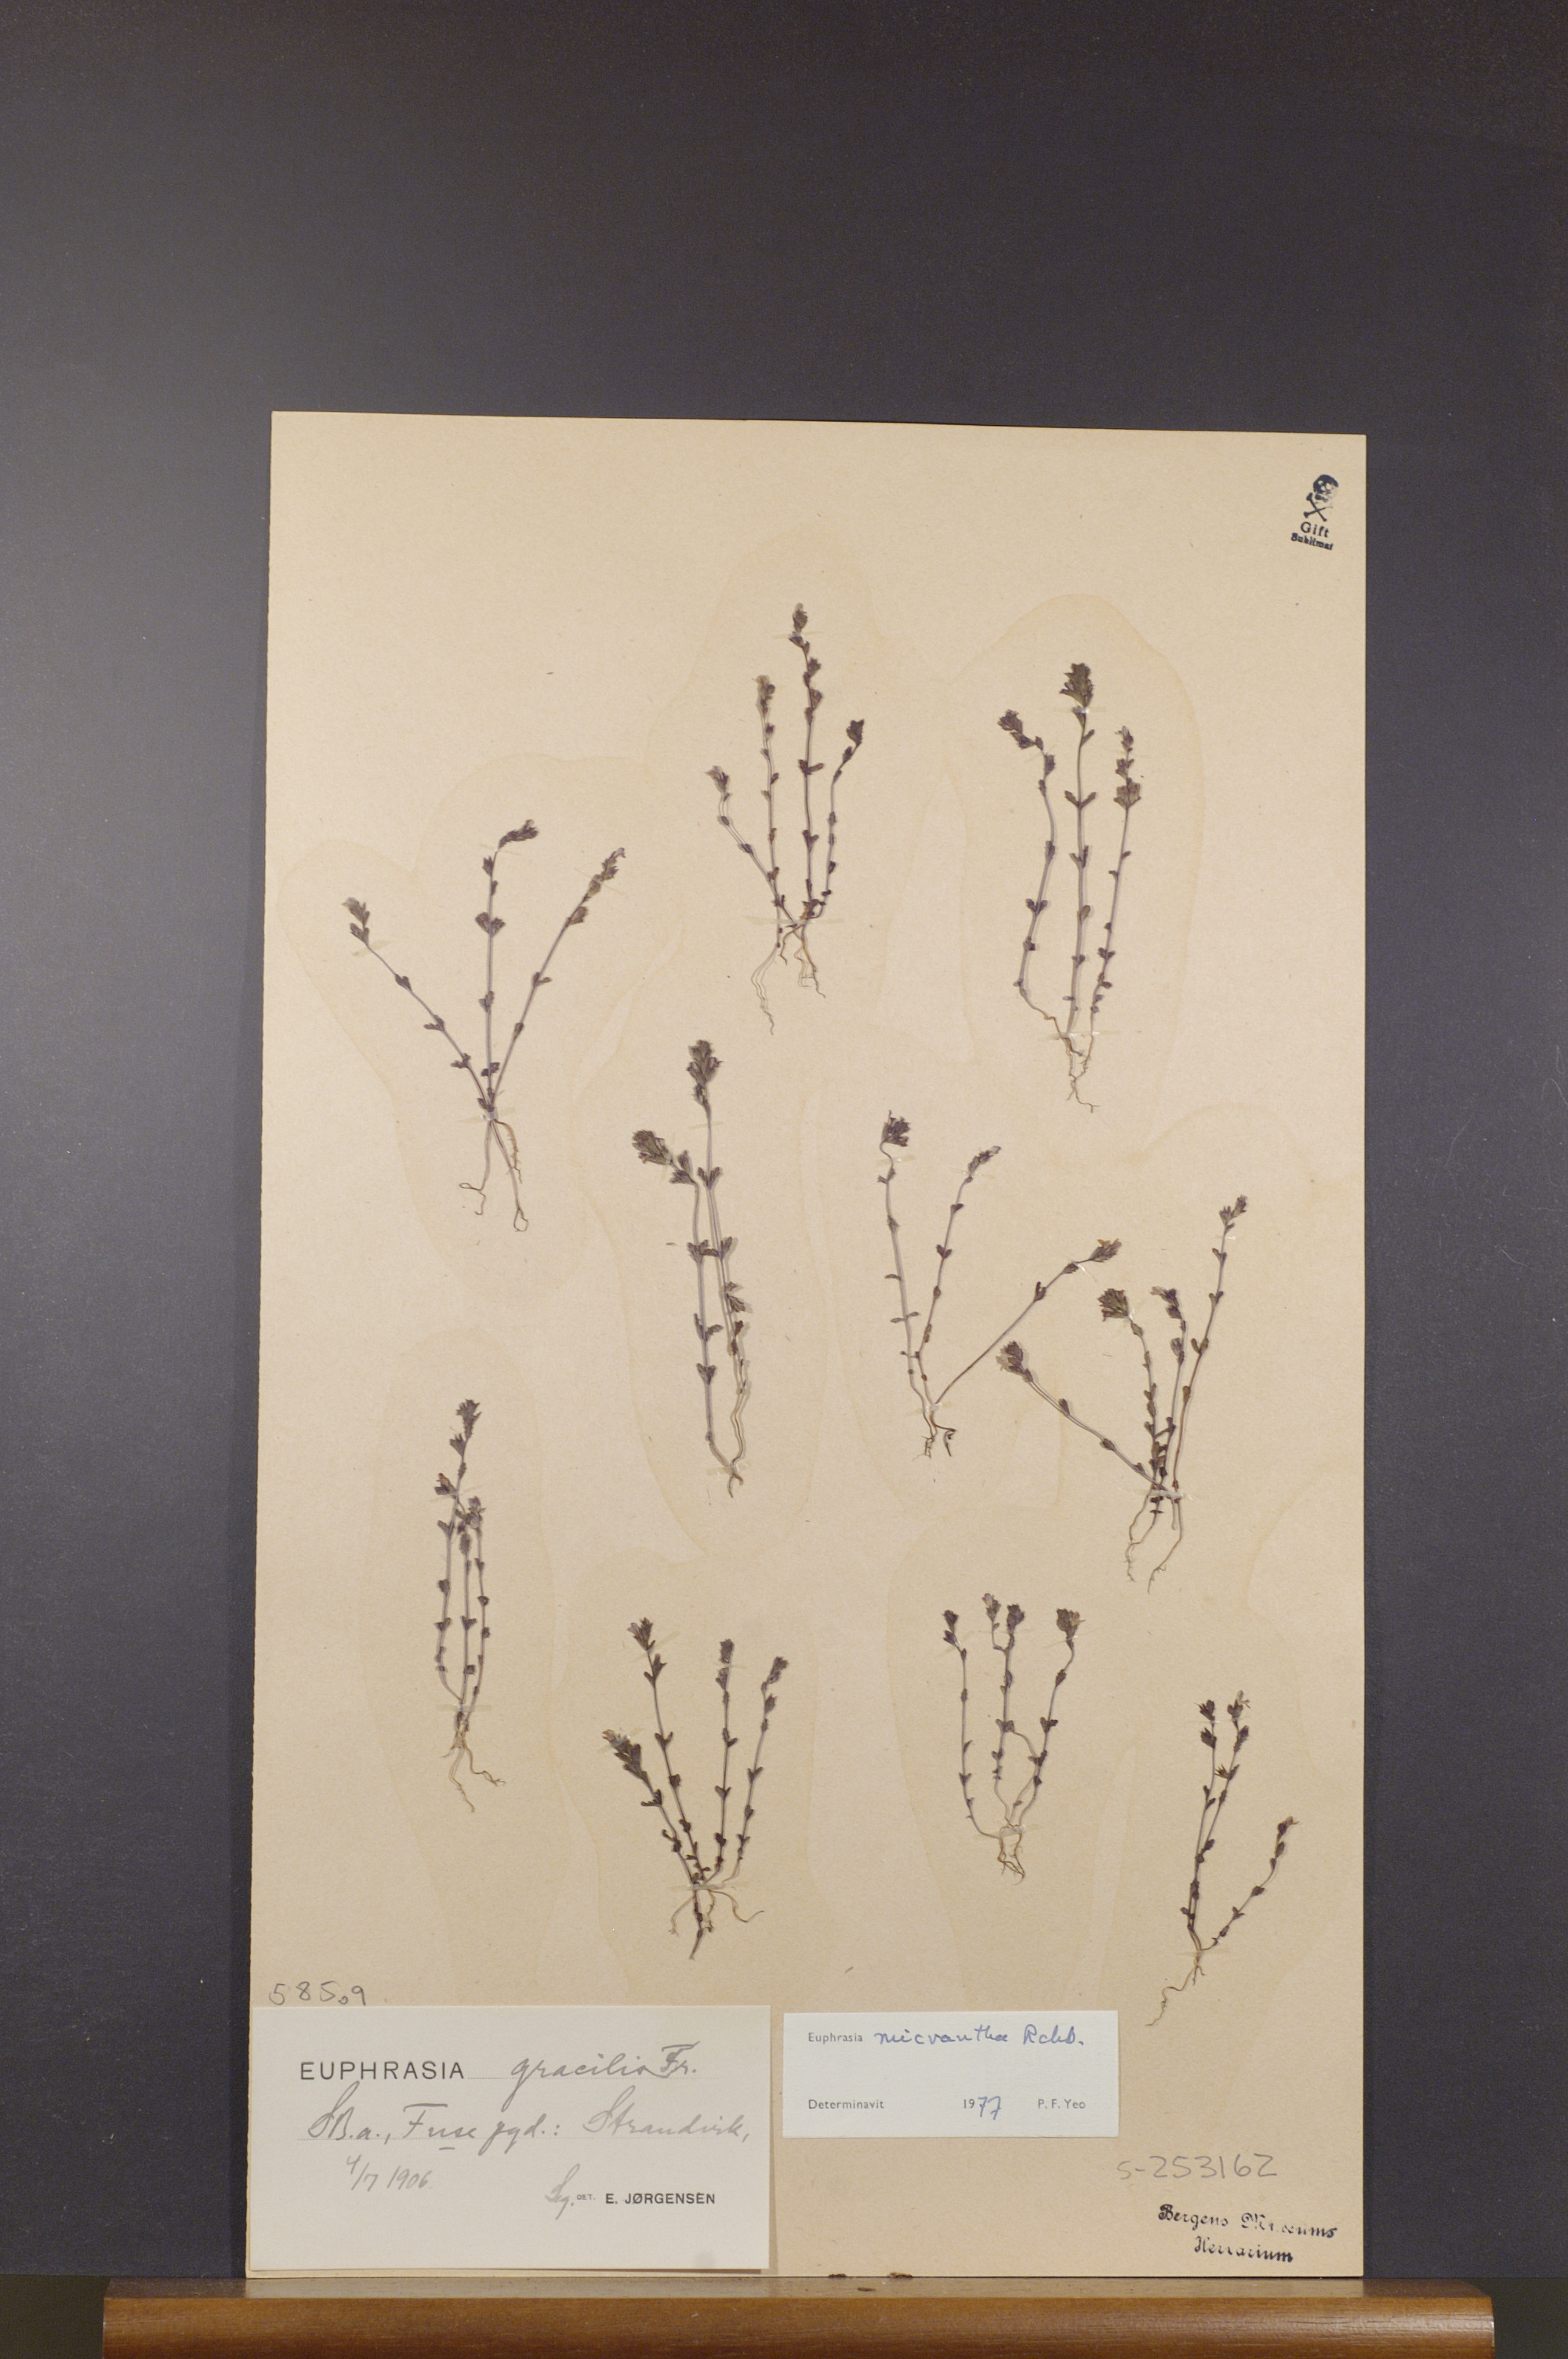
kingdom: Plantae
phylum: Tracheophyta
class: Magnoliopsida
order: Lamiales
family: Orobanchaceae
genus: Euphrasia
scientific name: Euphrasia micrantha
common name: Northern eyebright
